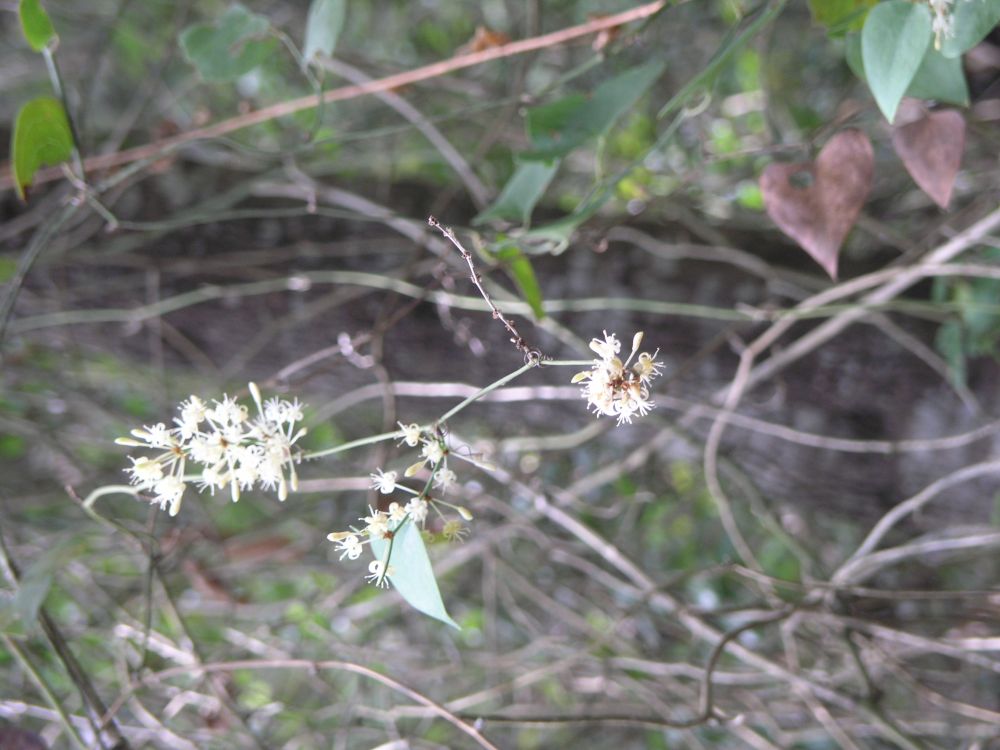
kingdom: Plantae
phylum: Tracheophyta
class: Liliopsida
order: Liliales
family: Smilacaceae
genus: Smilax
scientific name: Smilax aspera
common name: Common smilax
